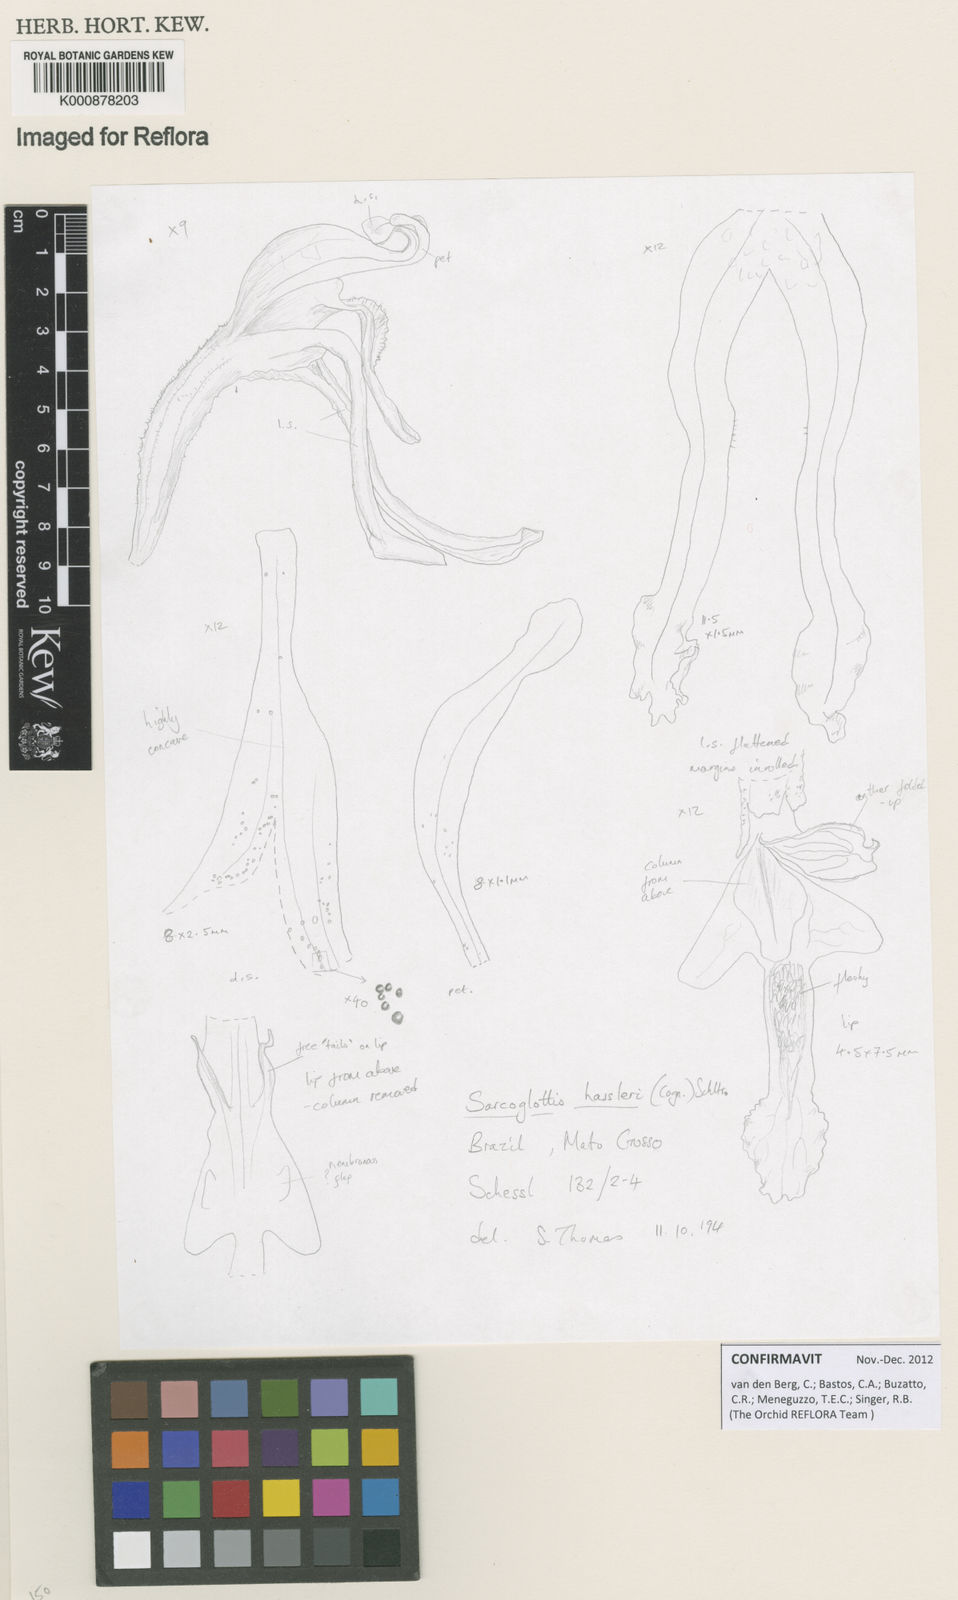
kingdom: Plantae
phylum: Tracheophyta
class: Liliopsida
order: Asparagales
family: Orchidaceae
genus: Veyretia
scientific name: Veyretia simplex
